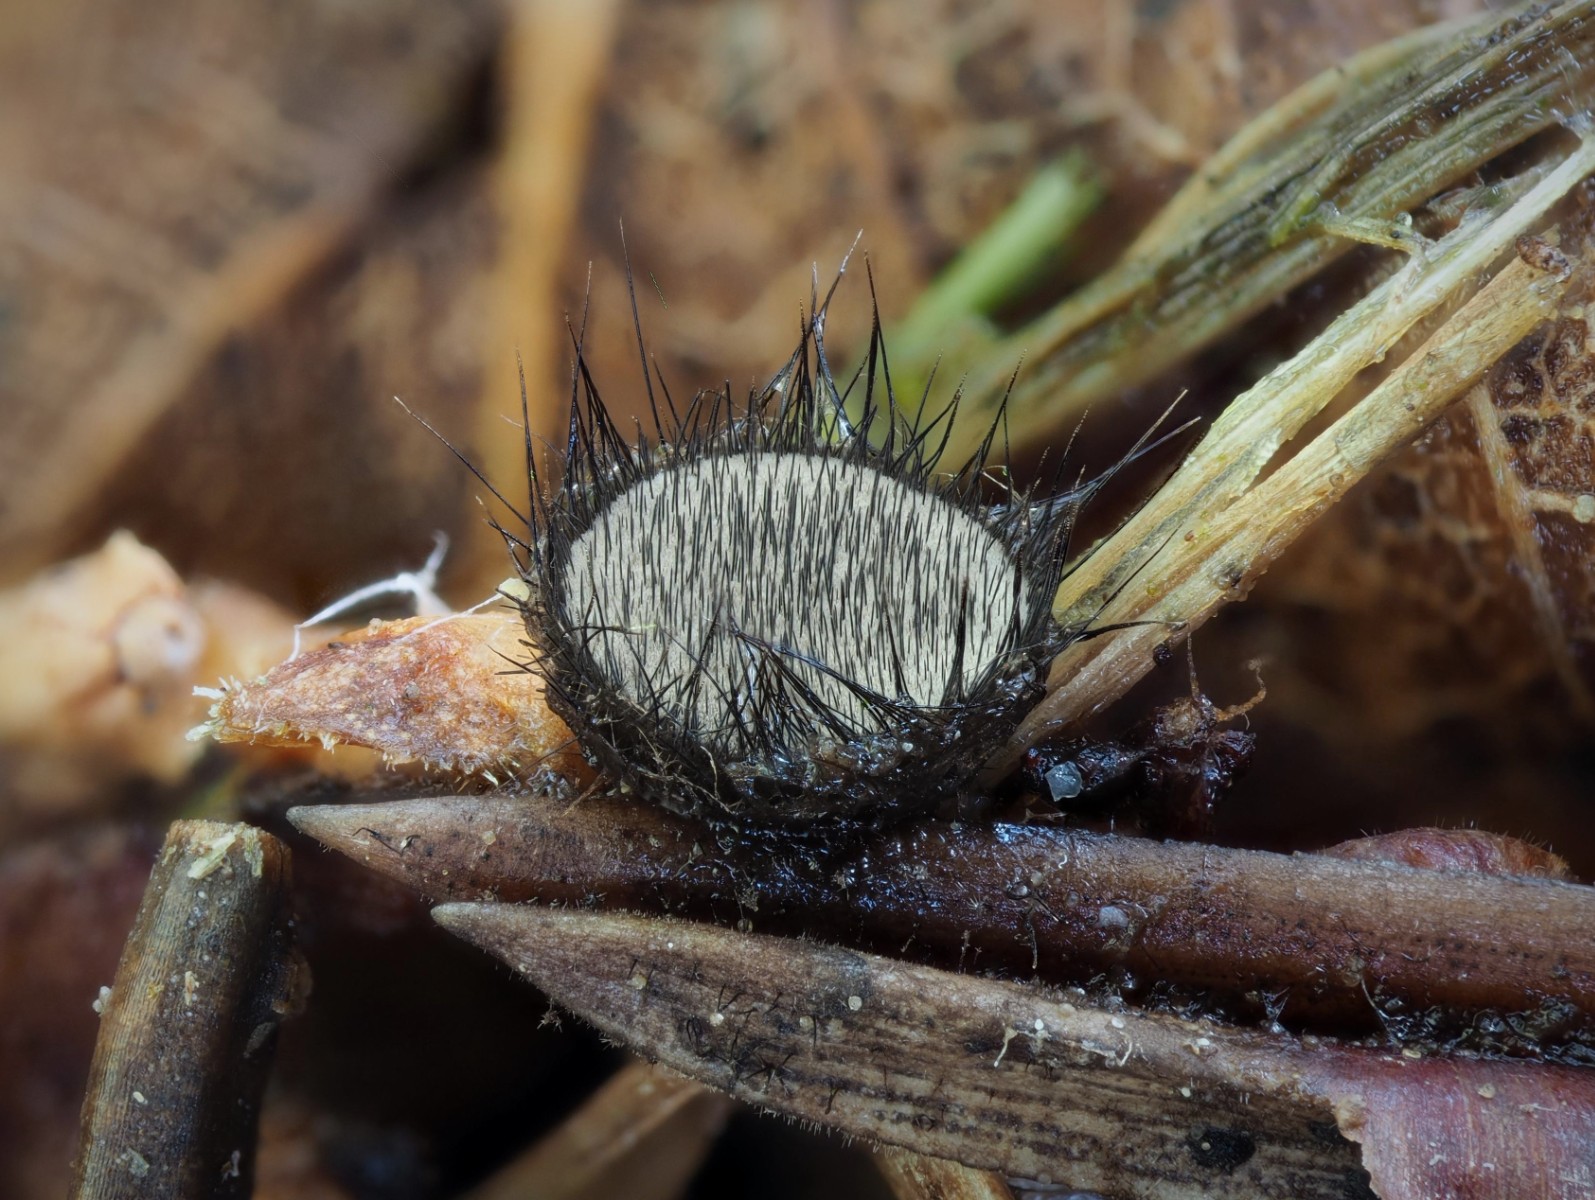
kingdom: Fungi
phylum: Ascomycota
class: Pezizomycetes
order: Pezizales
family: Chorioactidaceae
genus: Desmazierella
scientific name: Desmazierella acicola
